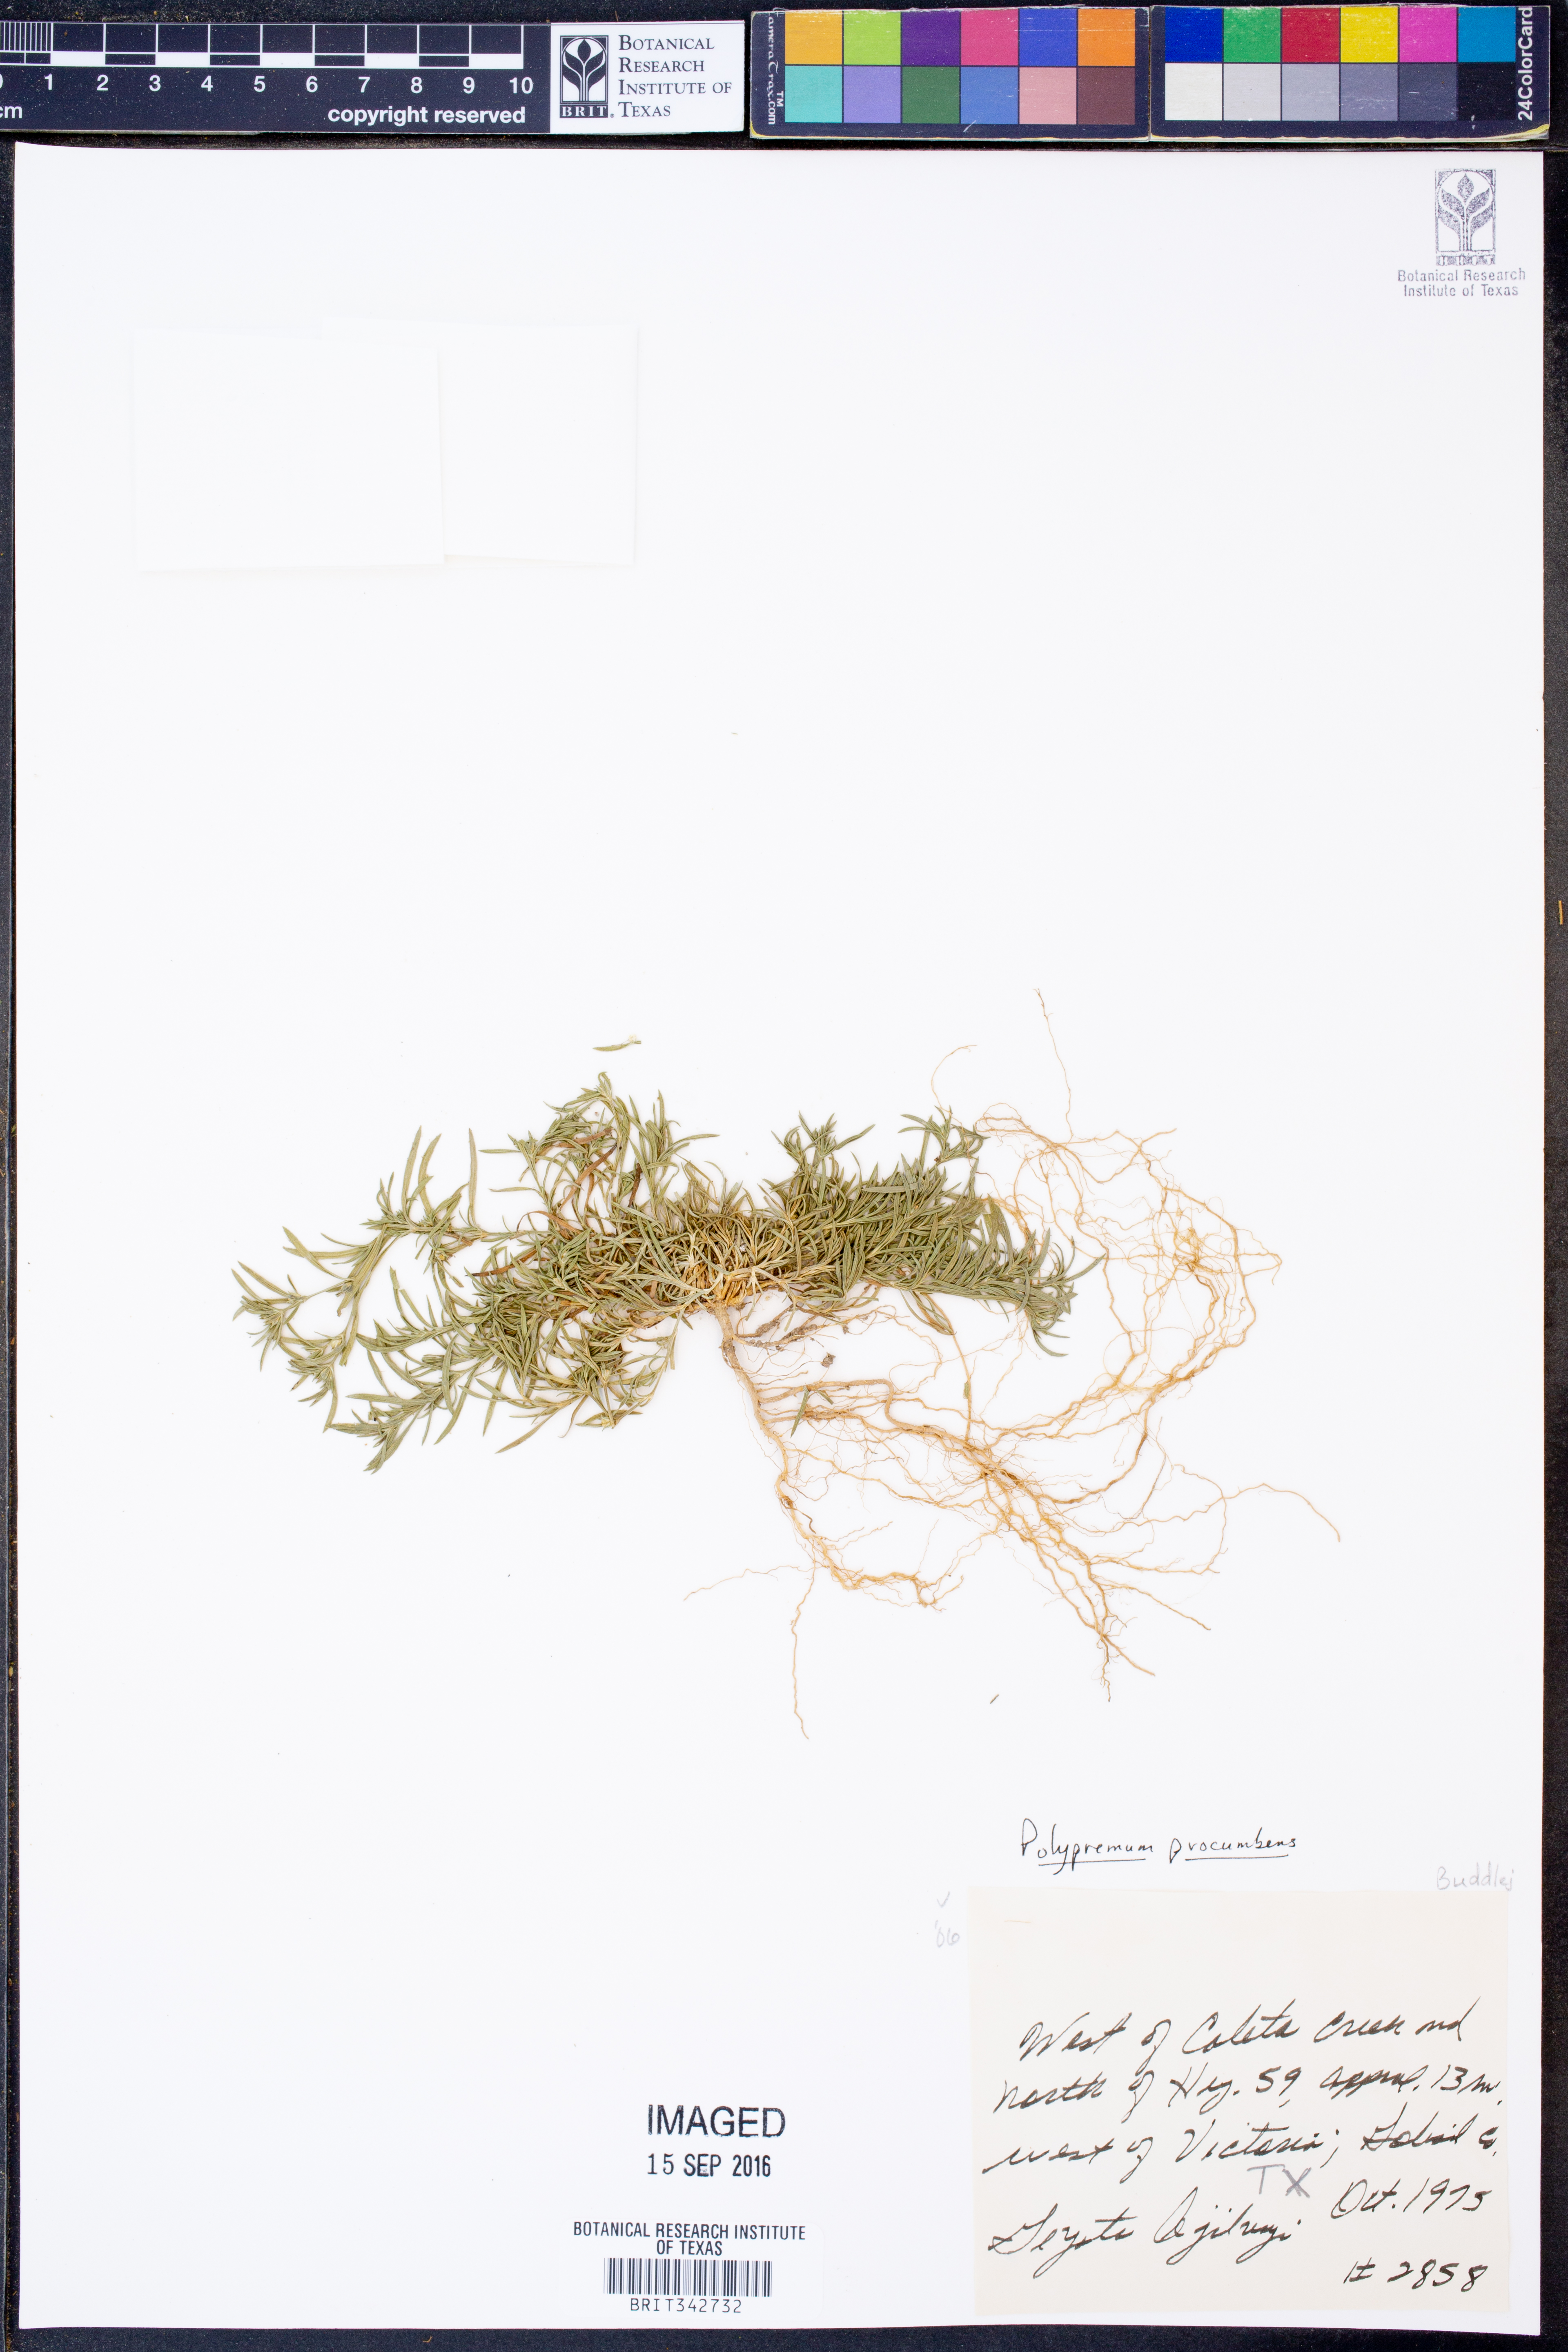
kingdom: Plantae
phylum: Tracheophyta
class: Magnoliopsida
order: Lamiales
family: Tetrachondraceae
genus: Polypremum
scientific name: Polypremum procumbens
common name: Juniper-leaf
